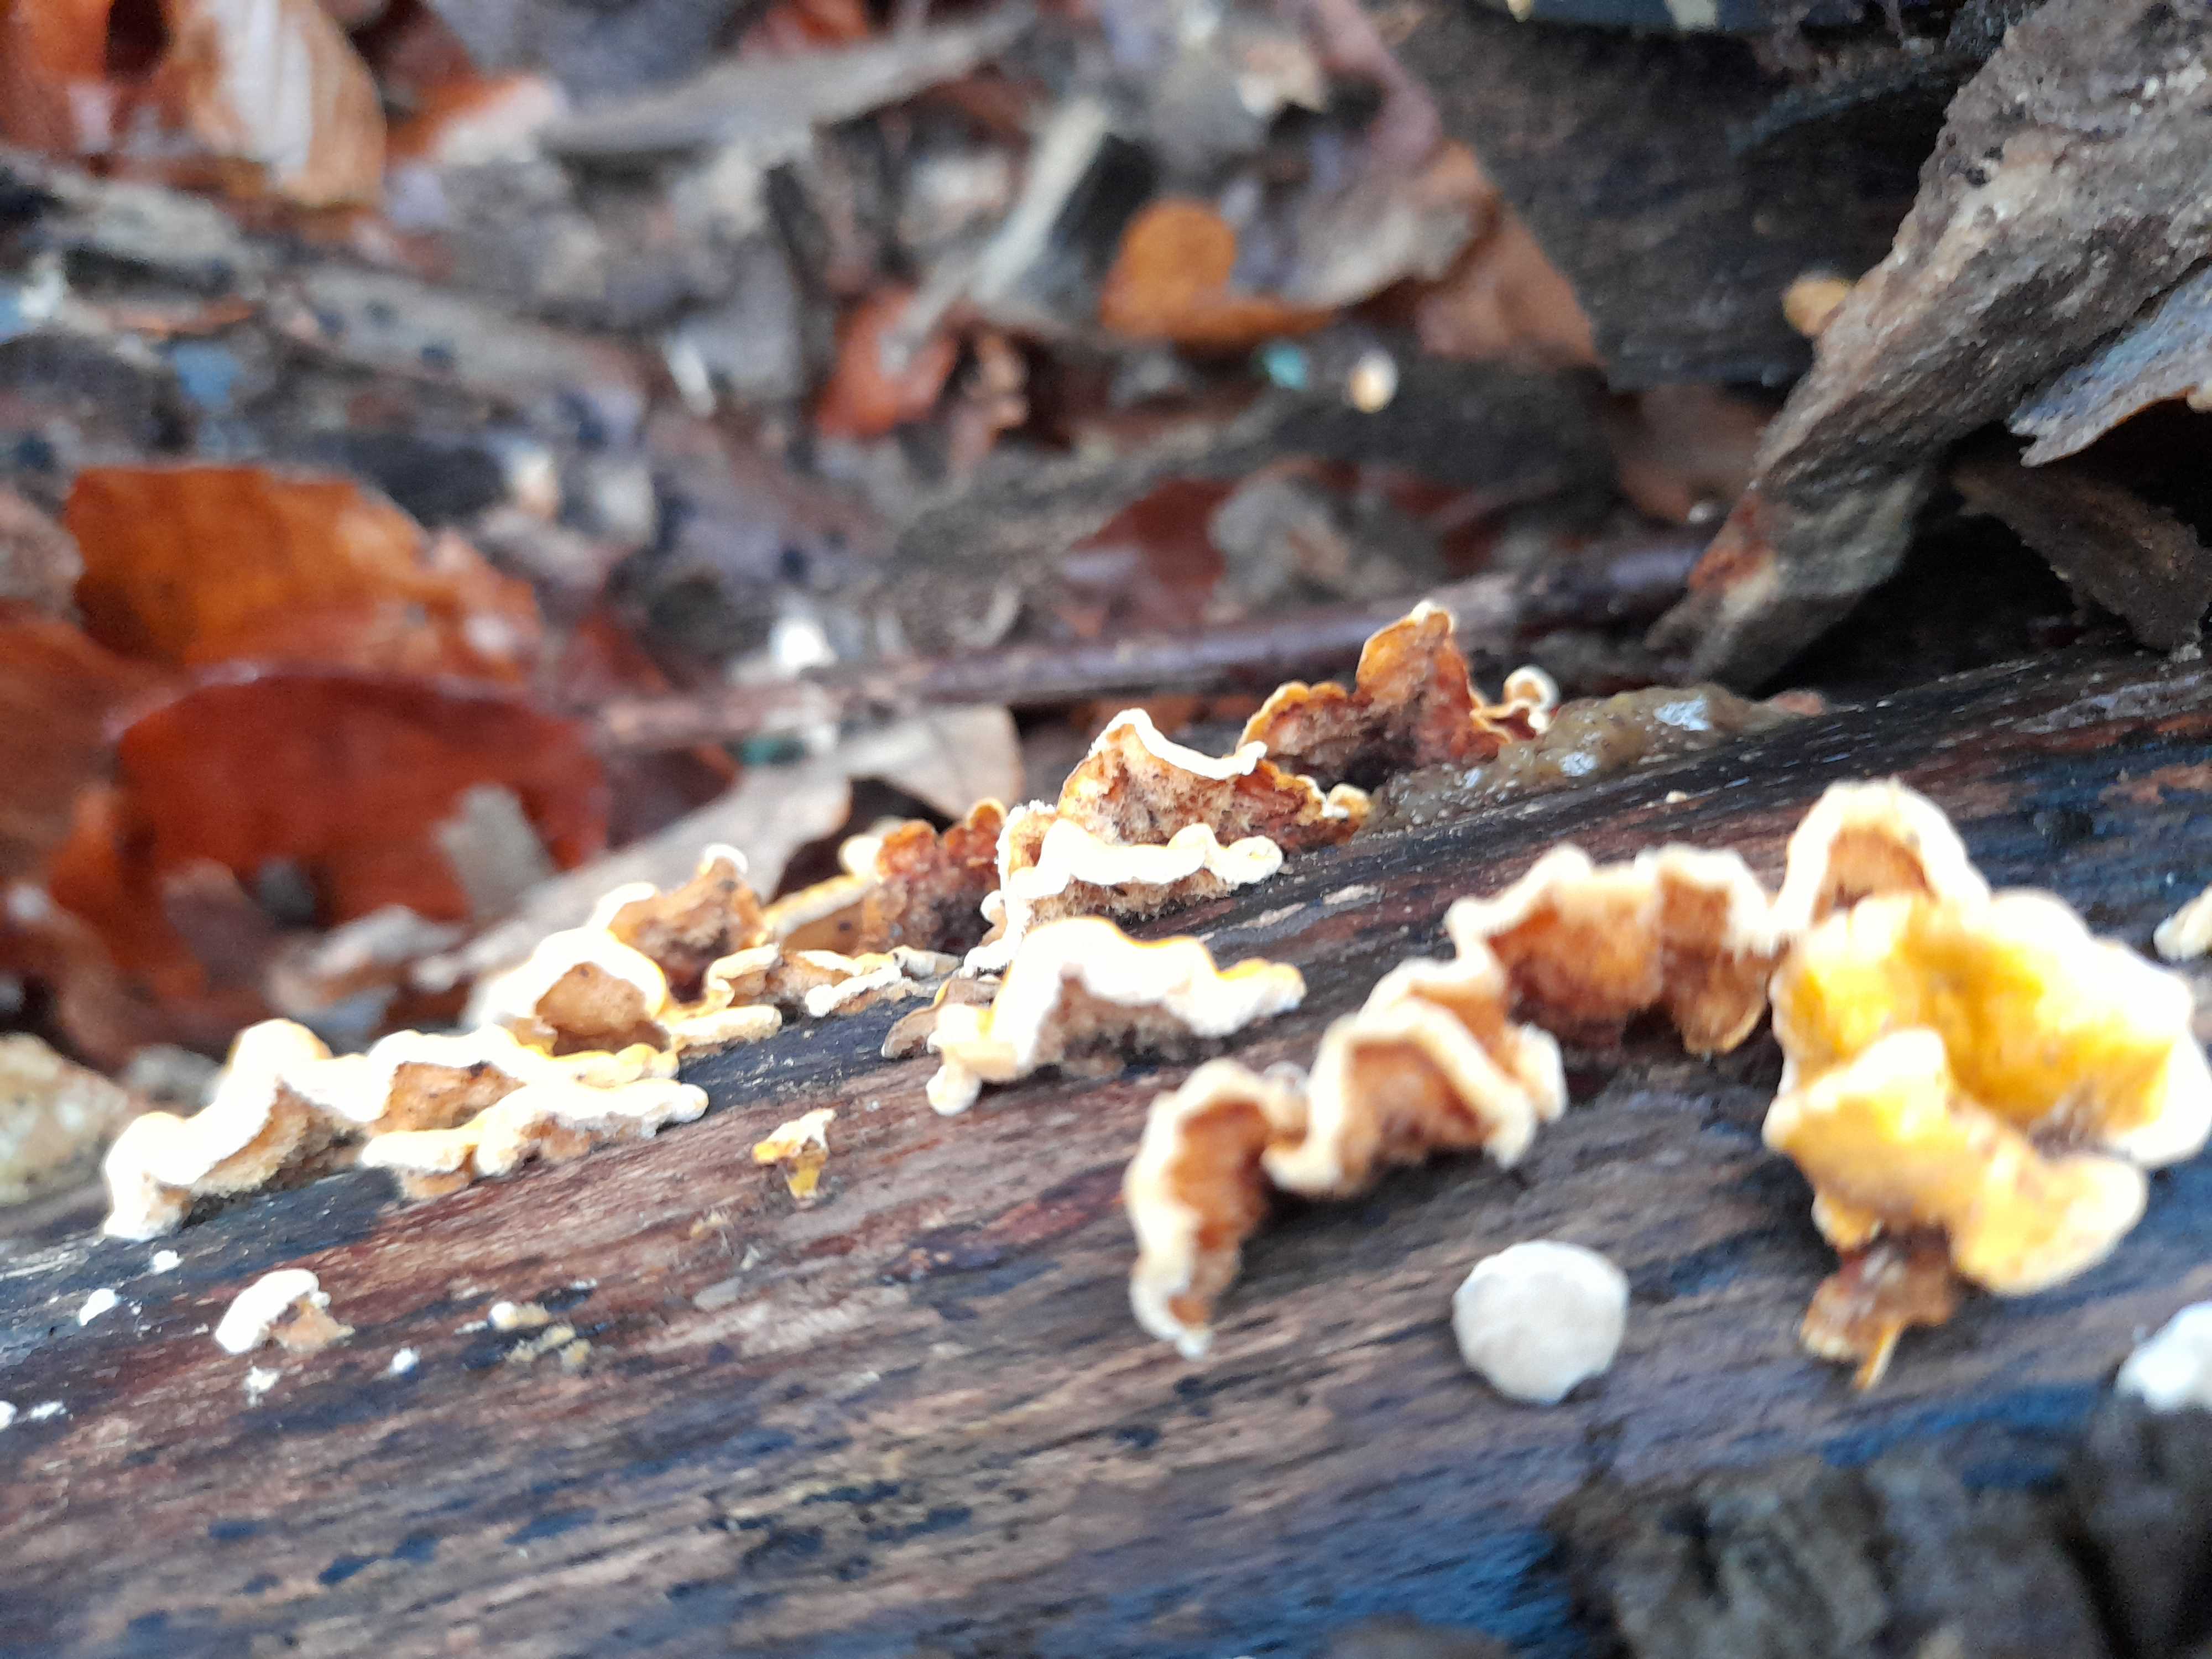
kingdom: Fungi
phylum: Basidiomycota
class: Agaricomycetes
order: Russulales
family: Stereaceae
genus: Stereum
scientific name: Stereum hirsutum
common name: håret lædersvamp
